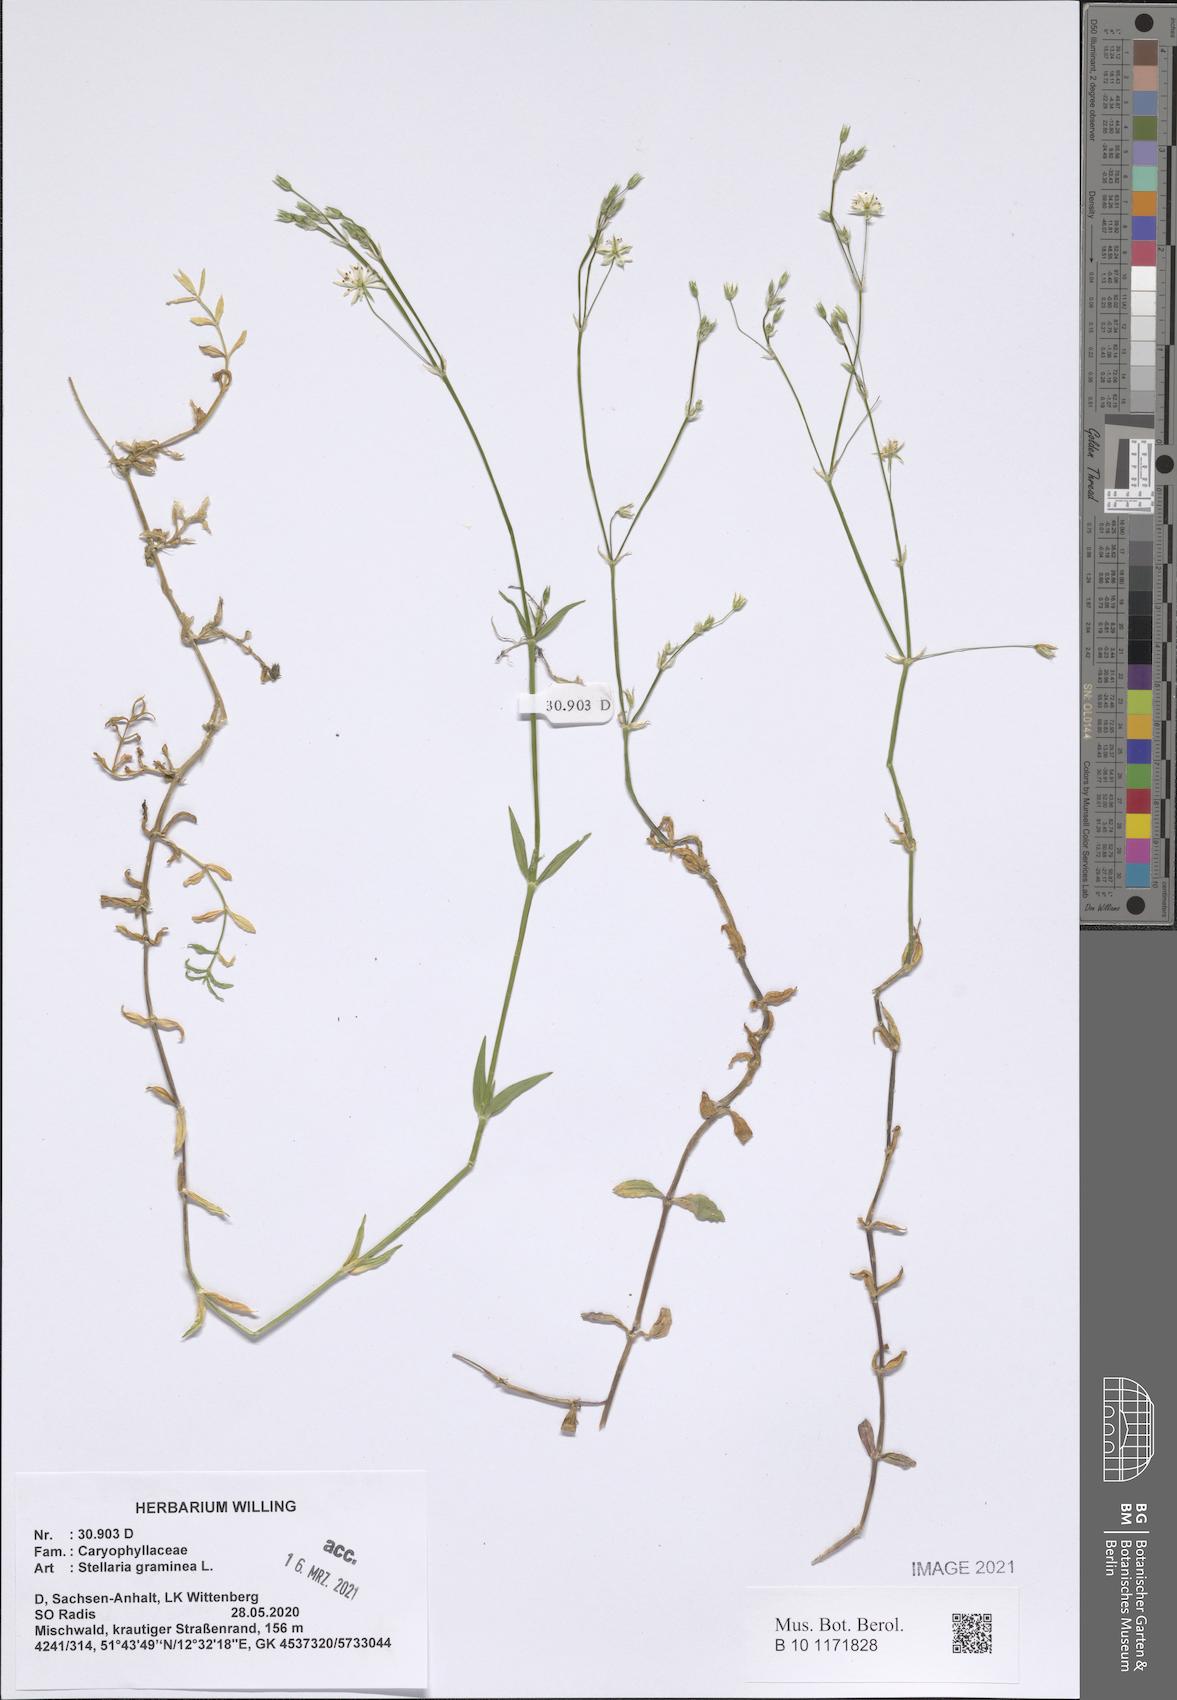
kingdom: Plantae
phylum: Tracheophyta
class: Magnoliopsida
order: Caryophyllales
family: Caryophyllaceae
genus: Stellaria
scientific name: Stellaria graminea
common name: Grass-like starwort
